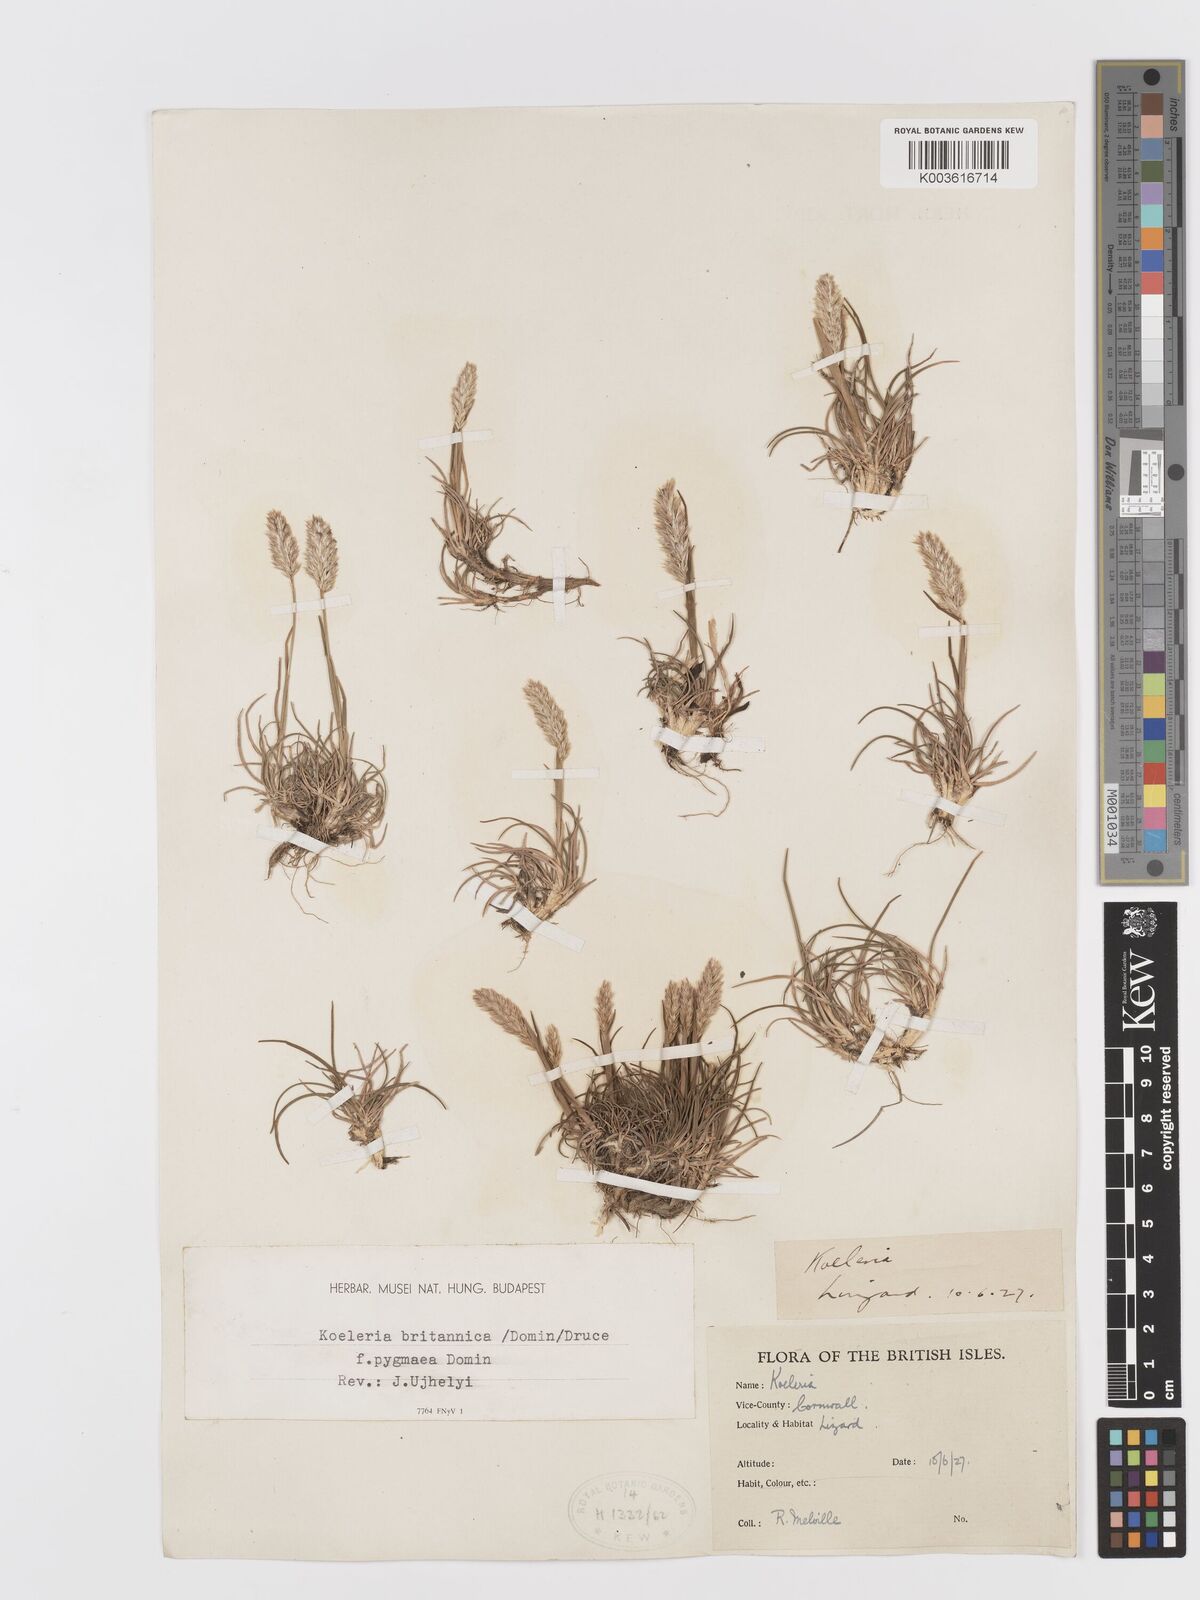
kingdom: Plantae
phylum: Tracheophyta
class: Liliopsida
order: Poales
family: Poaceae
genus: Koeleria
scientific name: Koeleria
